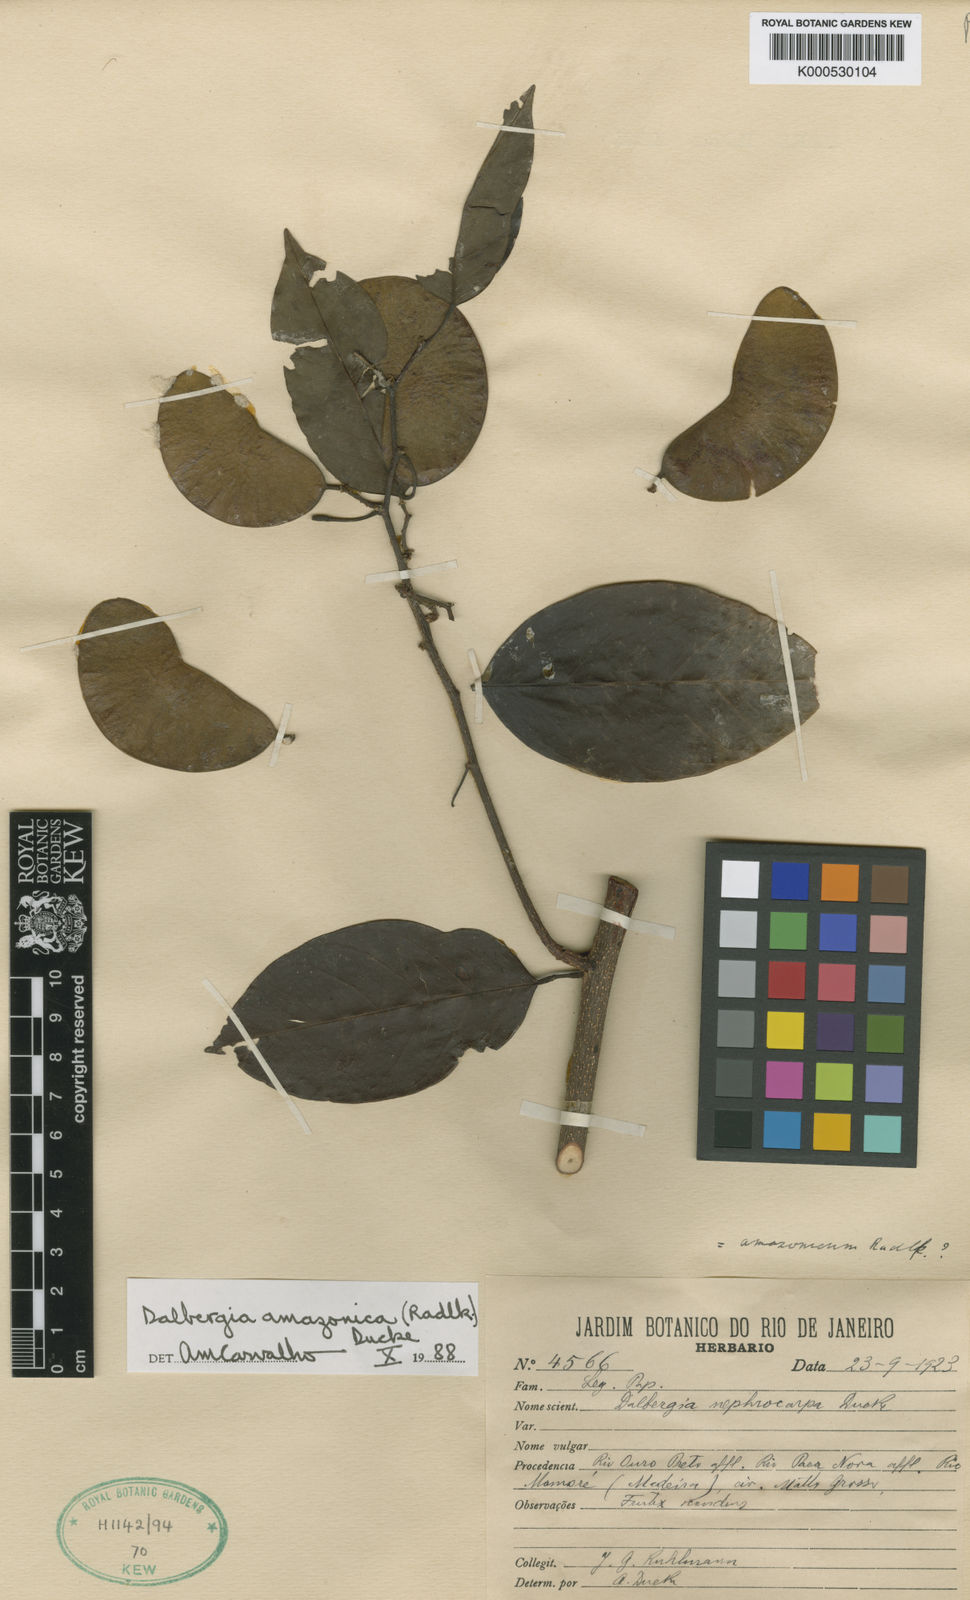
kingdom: Plantae
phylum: Tracheophyta
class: Magnoliopsida
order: Fabales
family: Fabaceae
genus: Dalbergia
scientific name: Dalbergia
